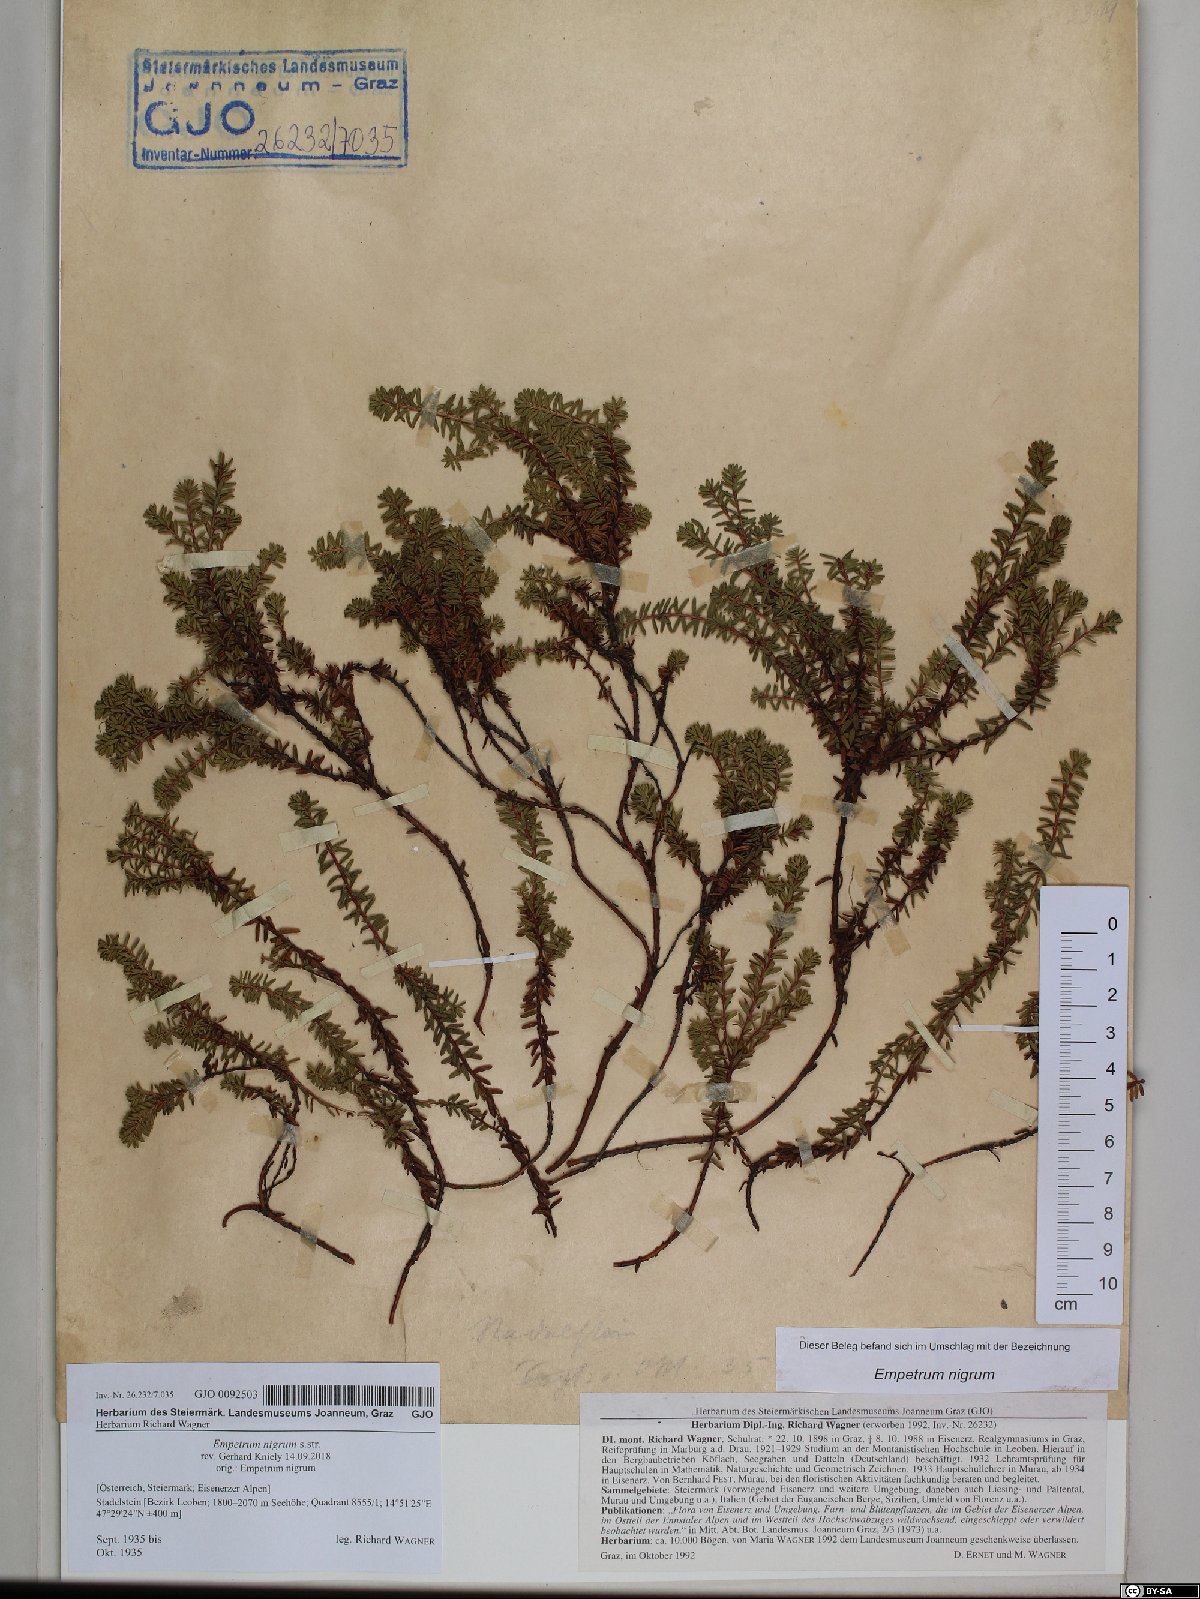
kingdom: Plantae
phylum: Tracheophyta
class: Magnoliopsida
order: Ericales
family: Ericaceae
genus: Empetrum
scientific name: Empetrum nigrum
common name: Black crowberry
